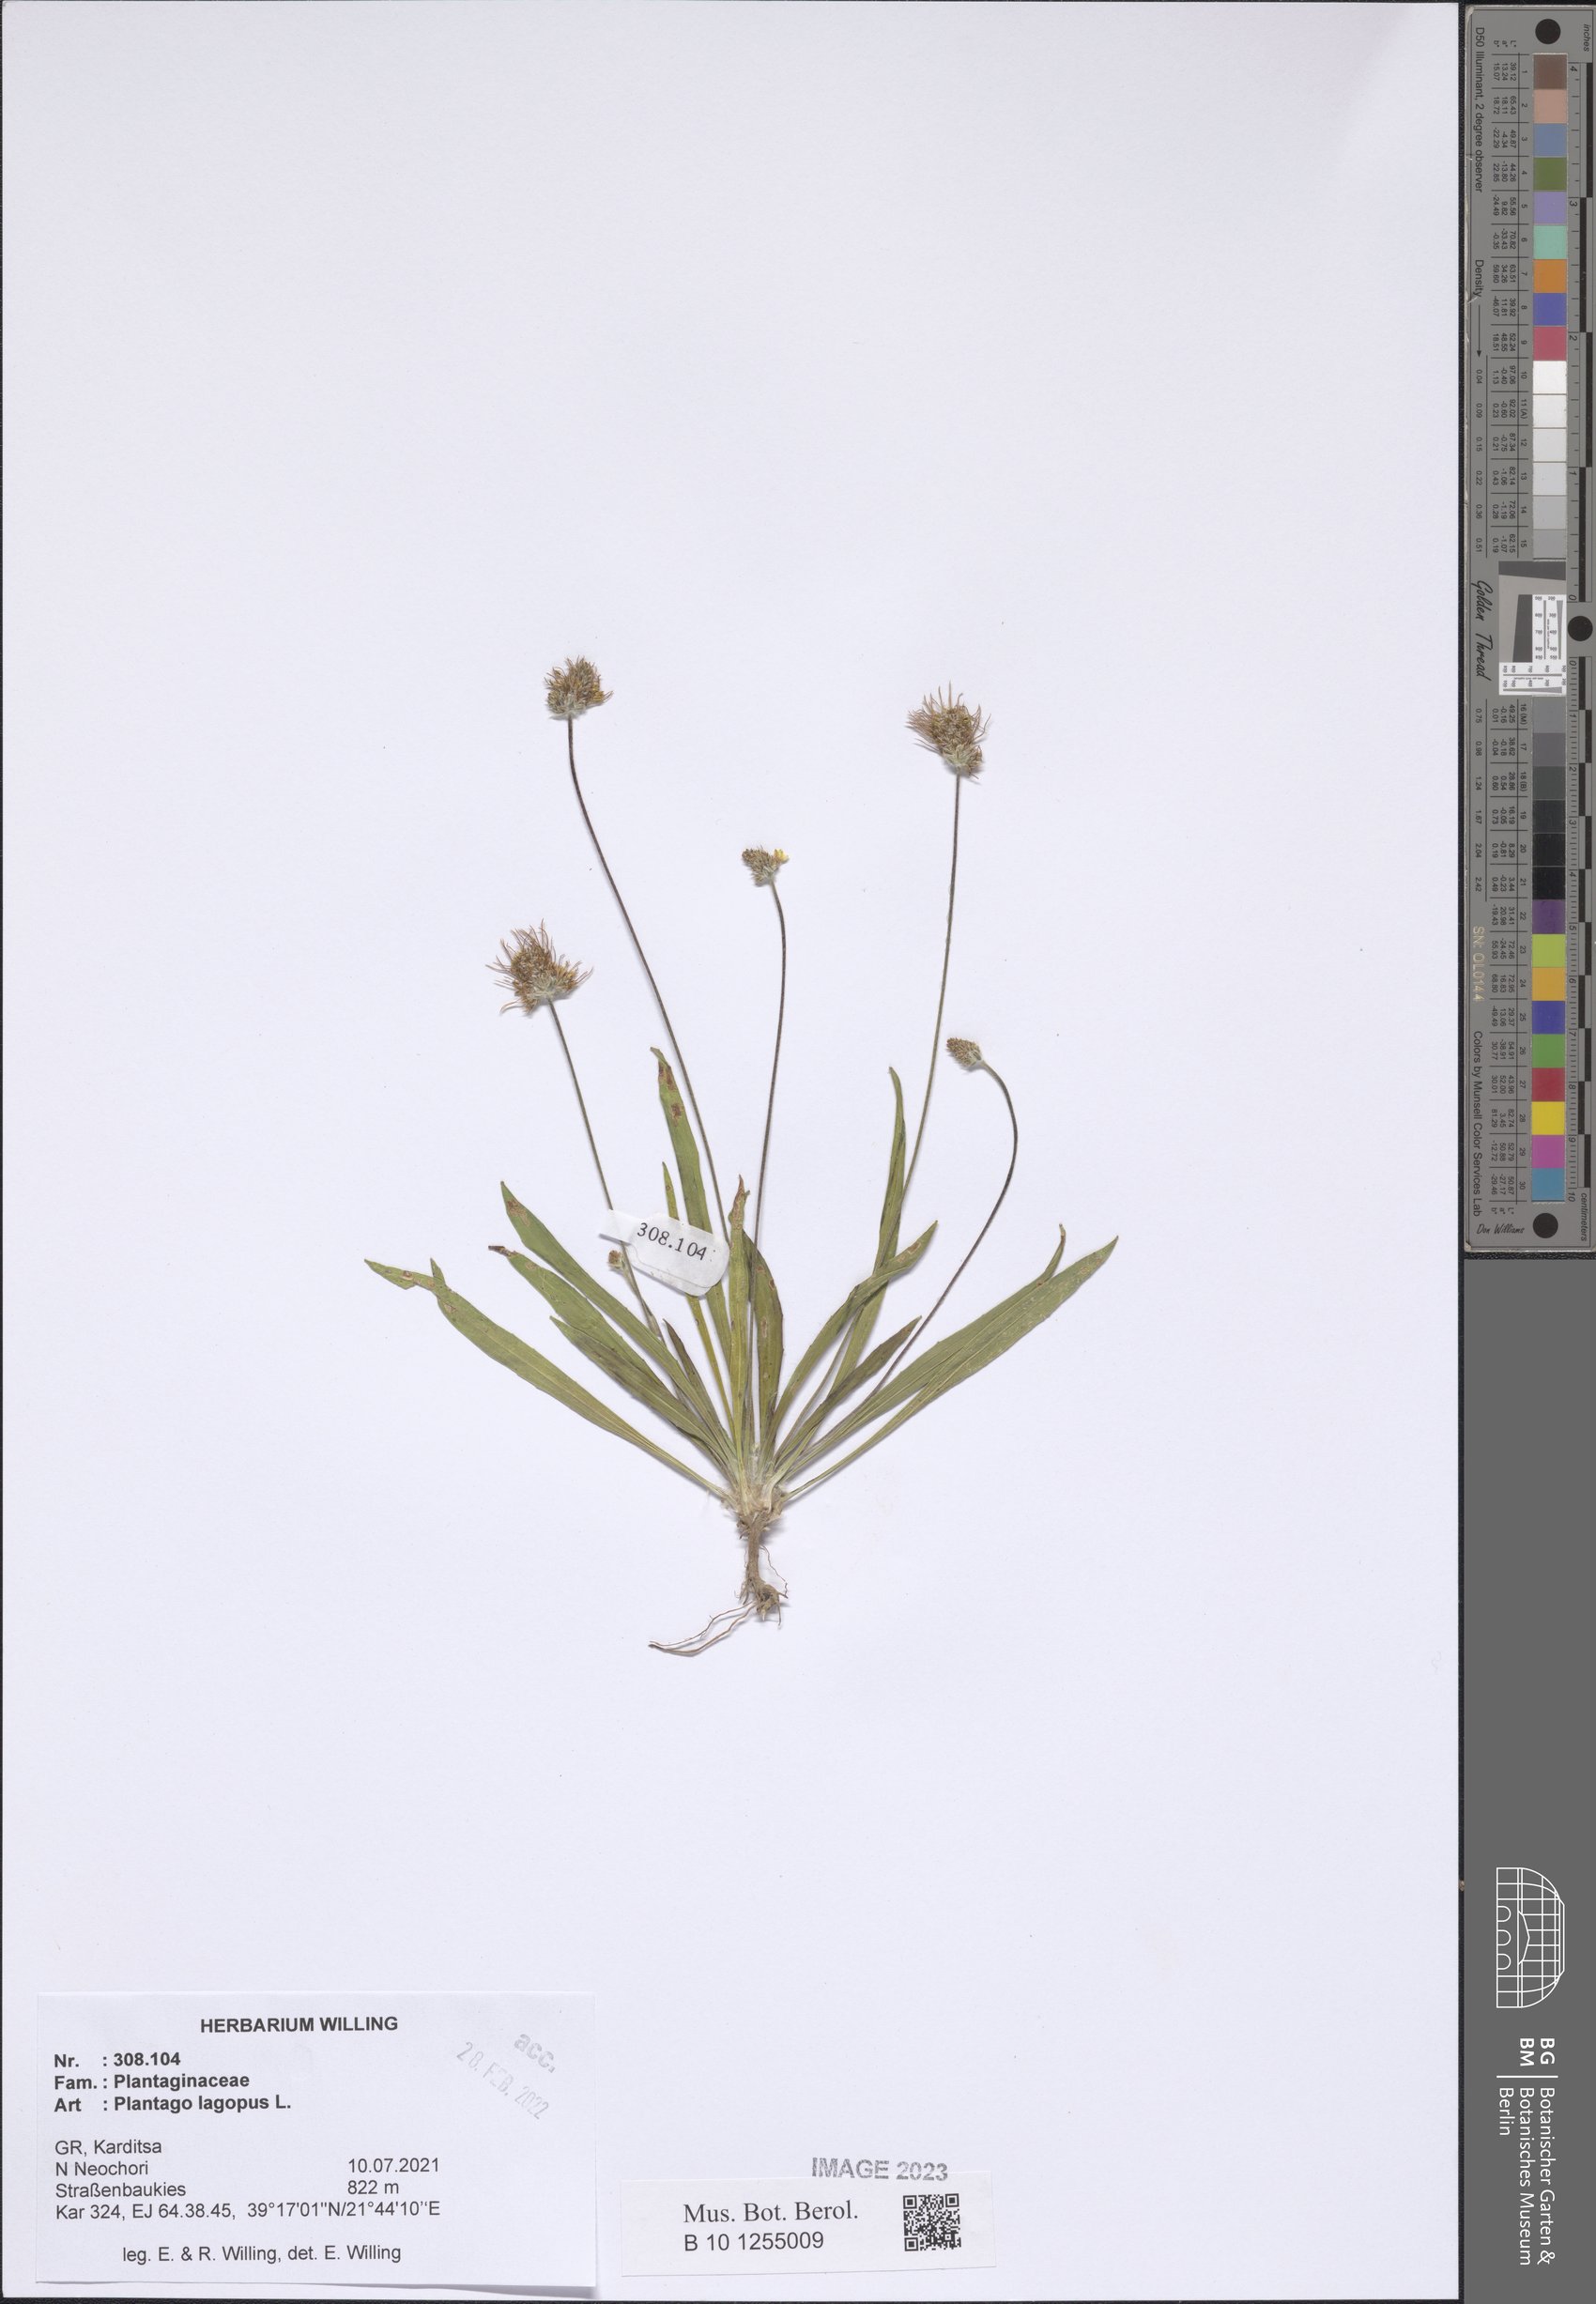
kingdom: Plantae
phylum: Tracheophyta
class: Magnoliopsida
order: Lamiales
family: Plantaginaceae
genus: Plantago
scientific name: Plantago lagopus
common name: Hare-foot plantain
